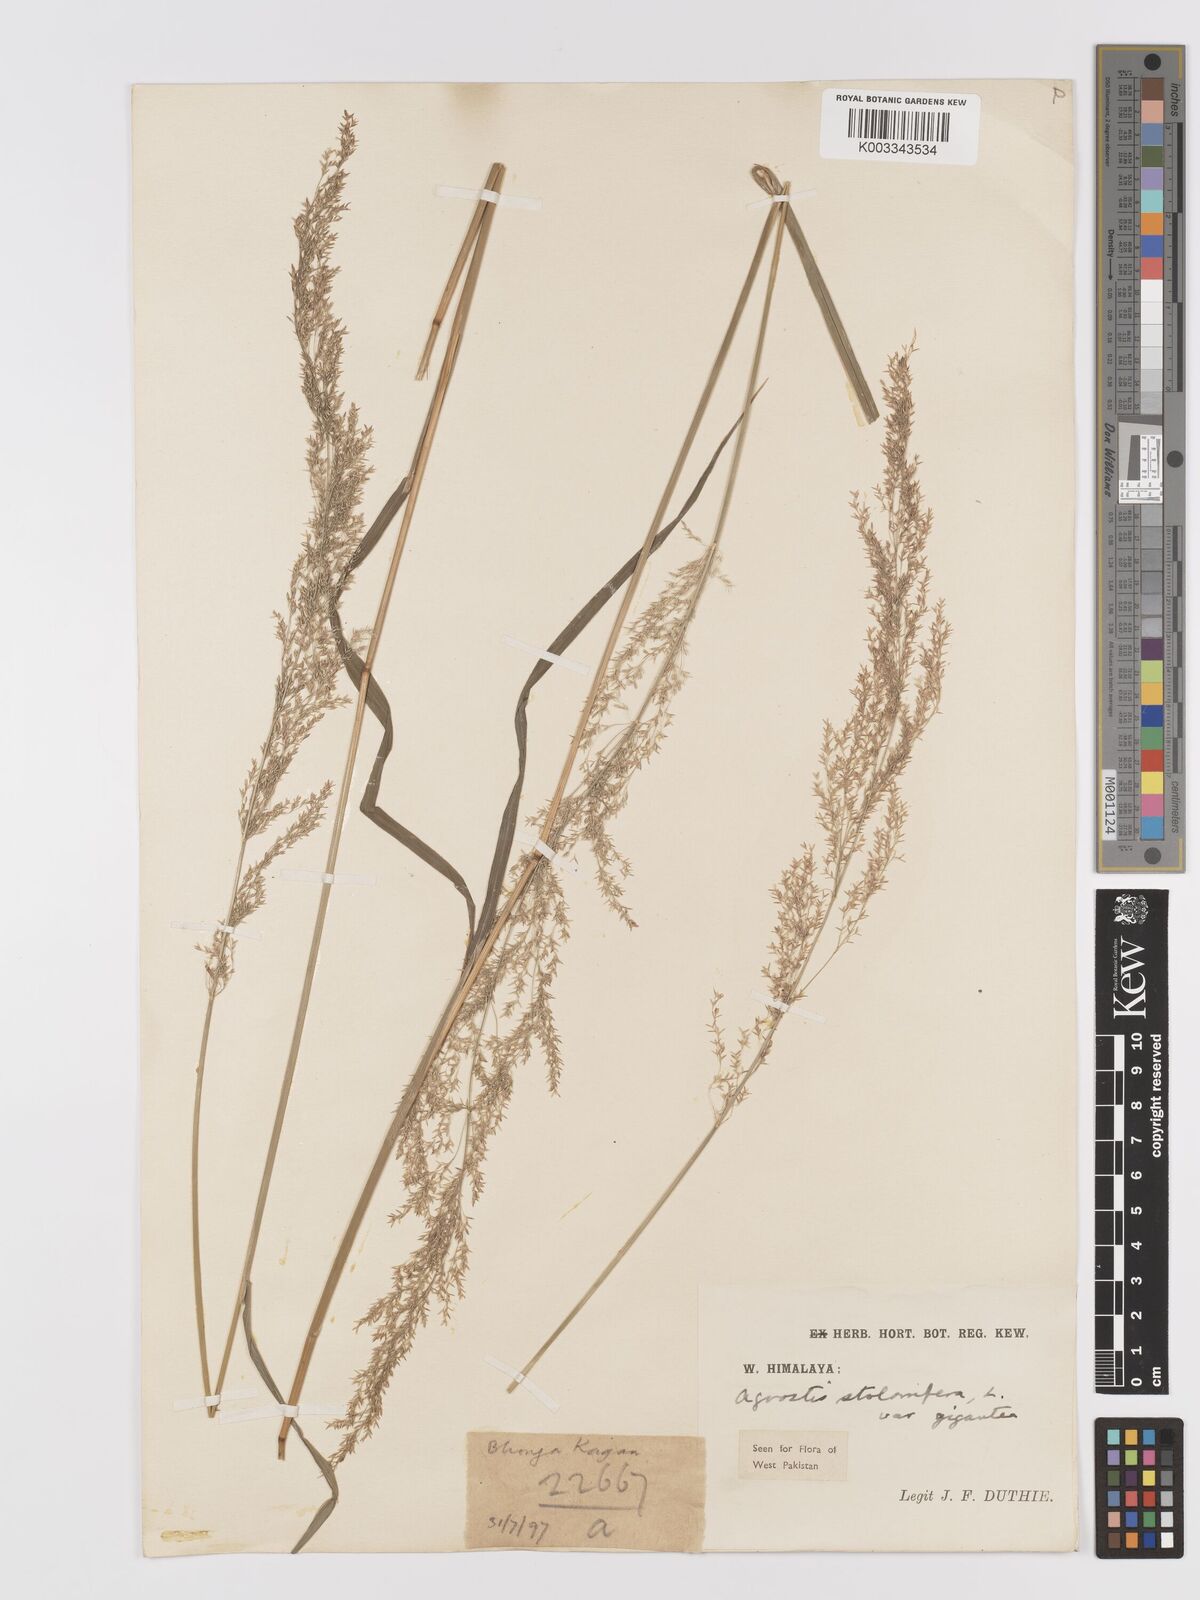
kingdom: Plantae
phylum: Tracheophyta
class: Liliopsida
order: Poales
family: Poaceae
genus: Agrostis
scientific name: Agrostis gigantea
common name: Black bent
